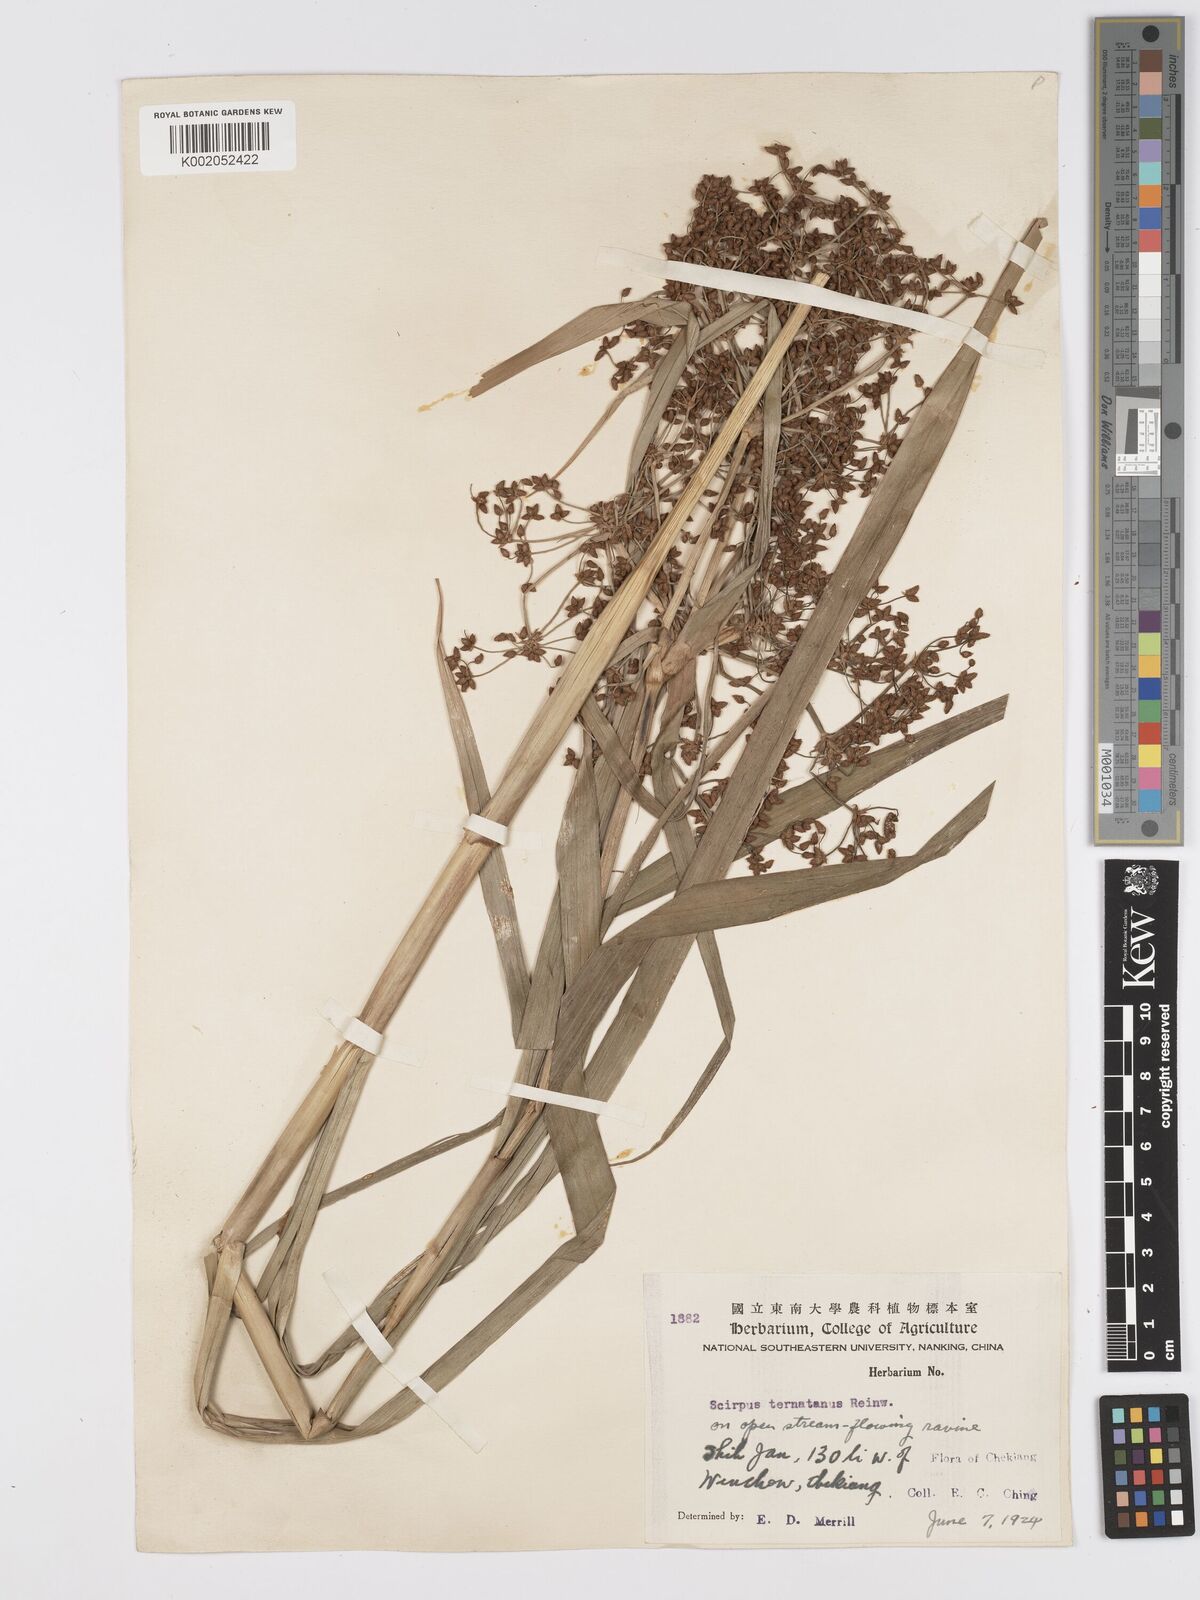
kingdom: Plantae
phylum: Tracheophyta
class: Liliopsida
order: Poales
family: Cyperaceae
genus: Scirpus
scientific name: Scirpus ternatanus
